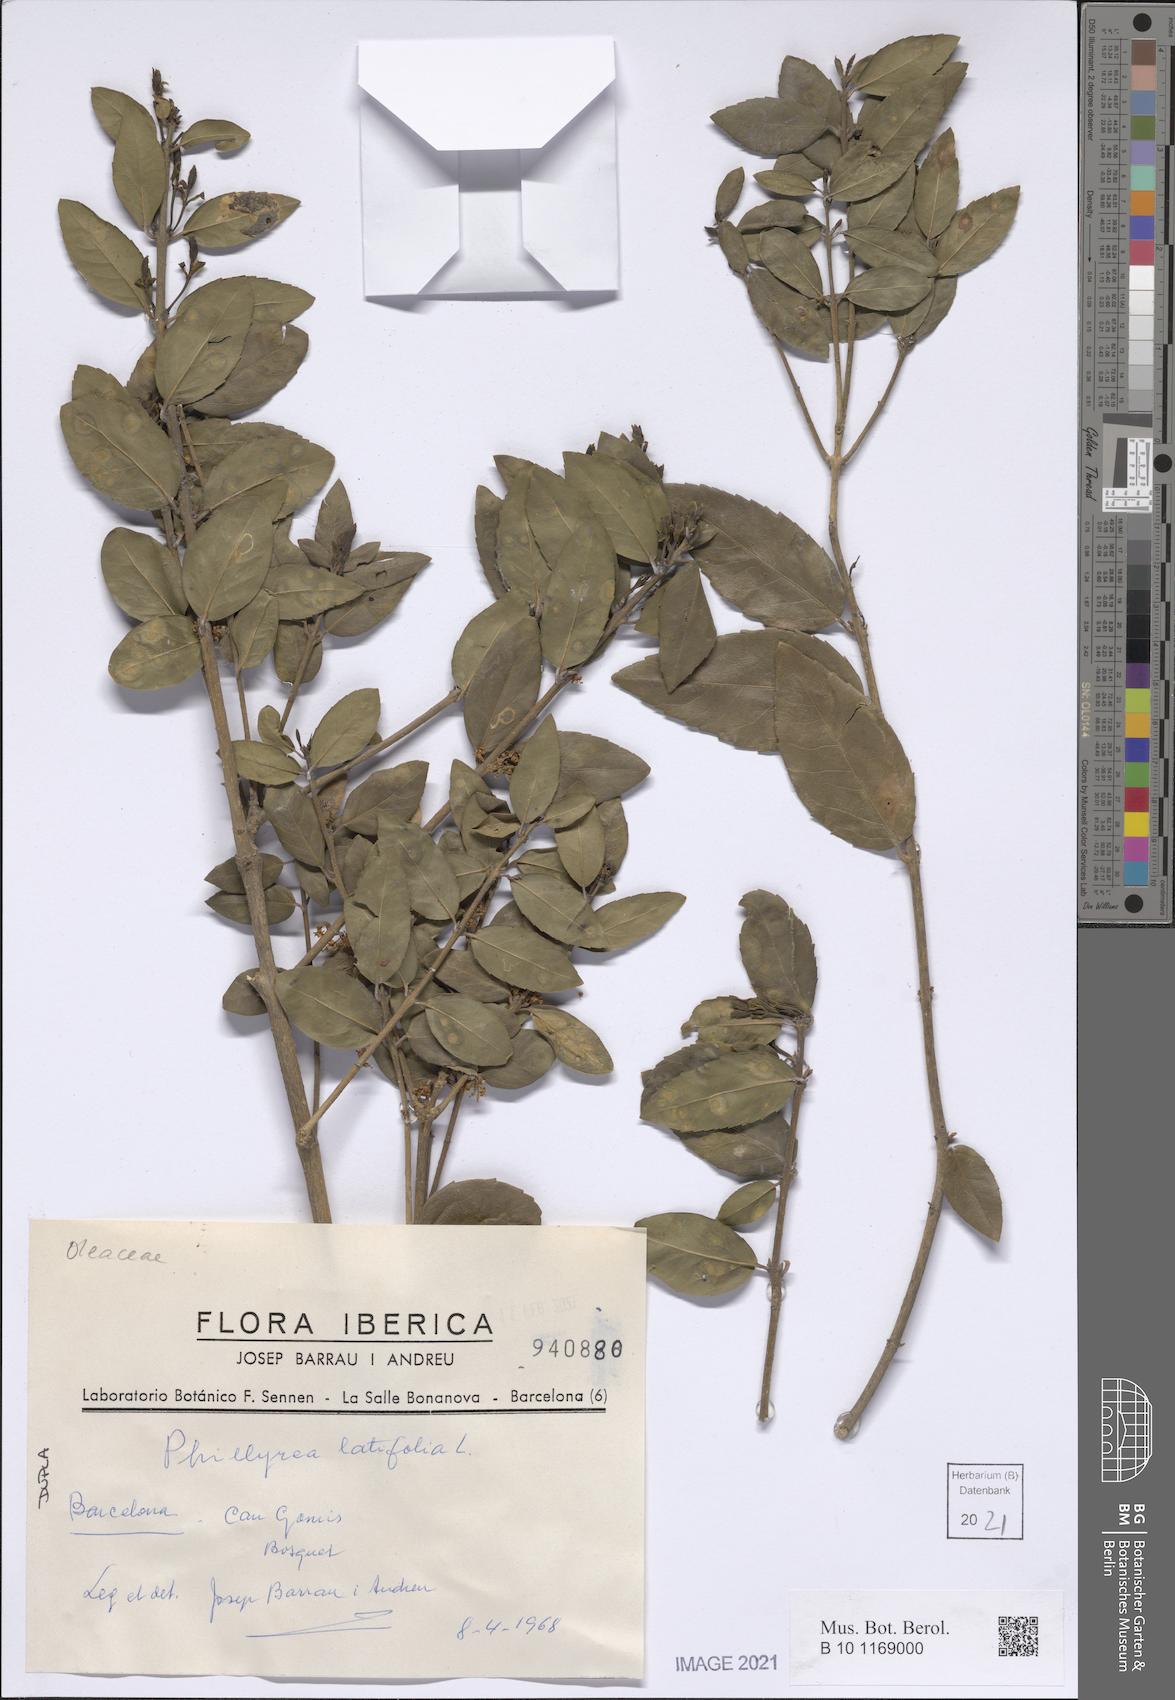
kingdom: Plantae
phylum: Tracheophyta
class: Magnoliopsida
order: Lamiales
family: Oleaceae
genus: Phillyrea
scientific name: Phillyrea latifolia
